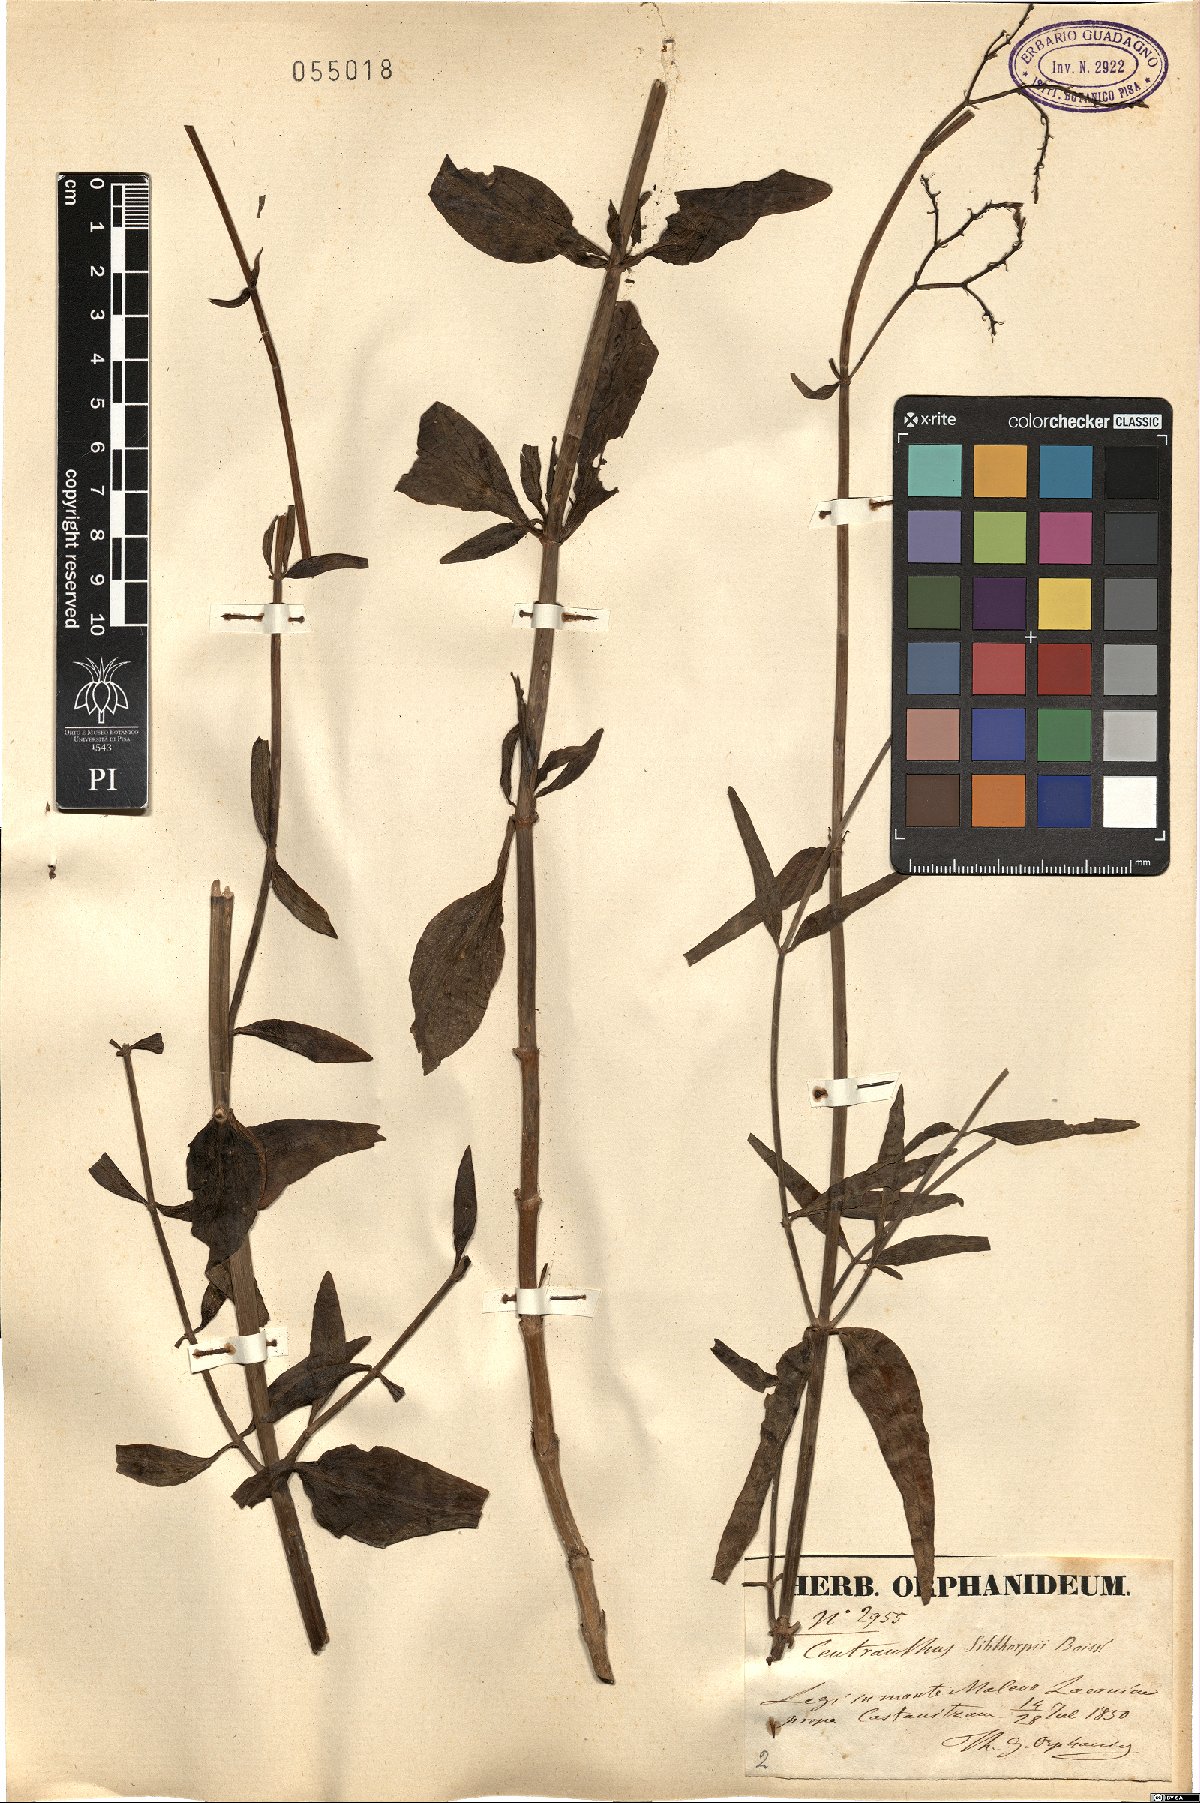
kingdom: Plantae
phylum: Tracheophyta
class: Magnoliopsida
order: Dipsacales
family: Caprifoliaceae
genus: Centranthus
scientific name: Centranthus ruber
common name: Red valerian
